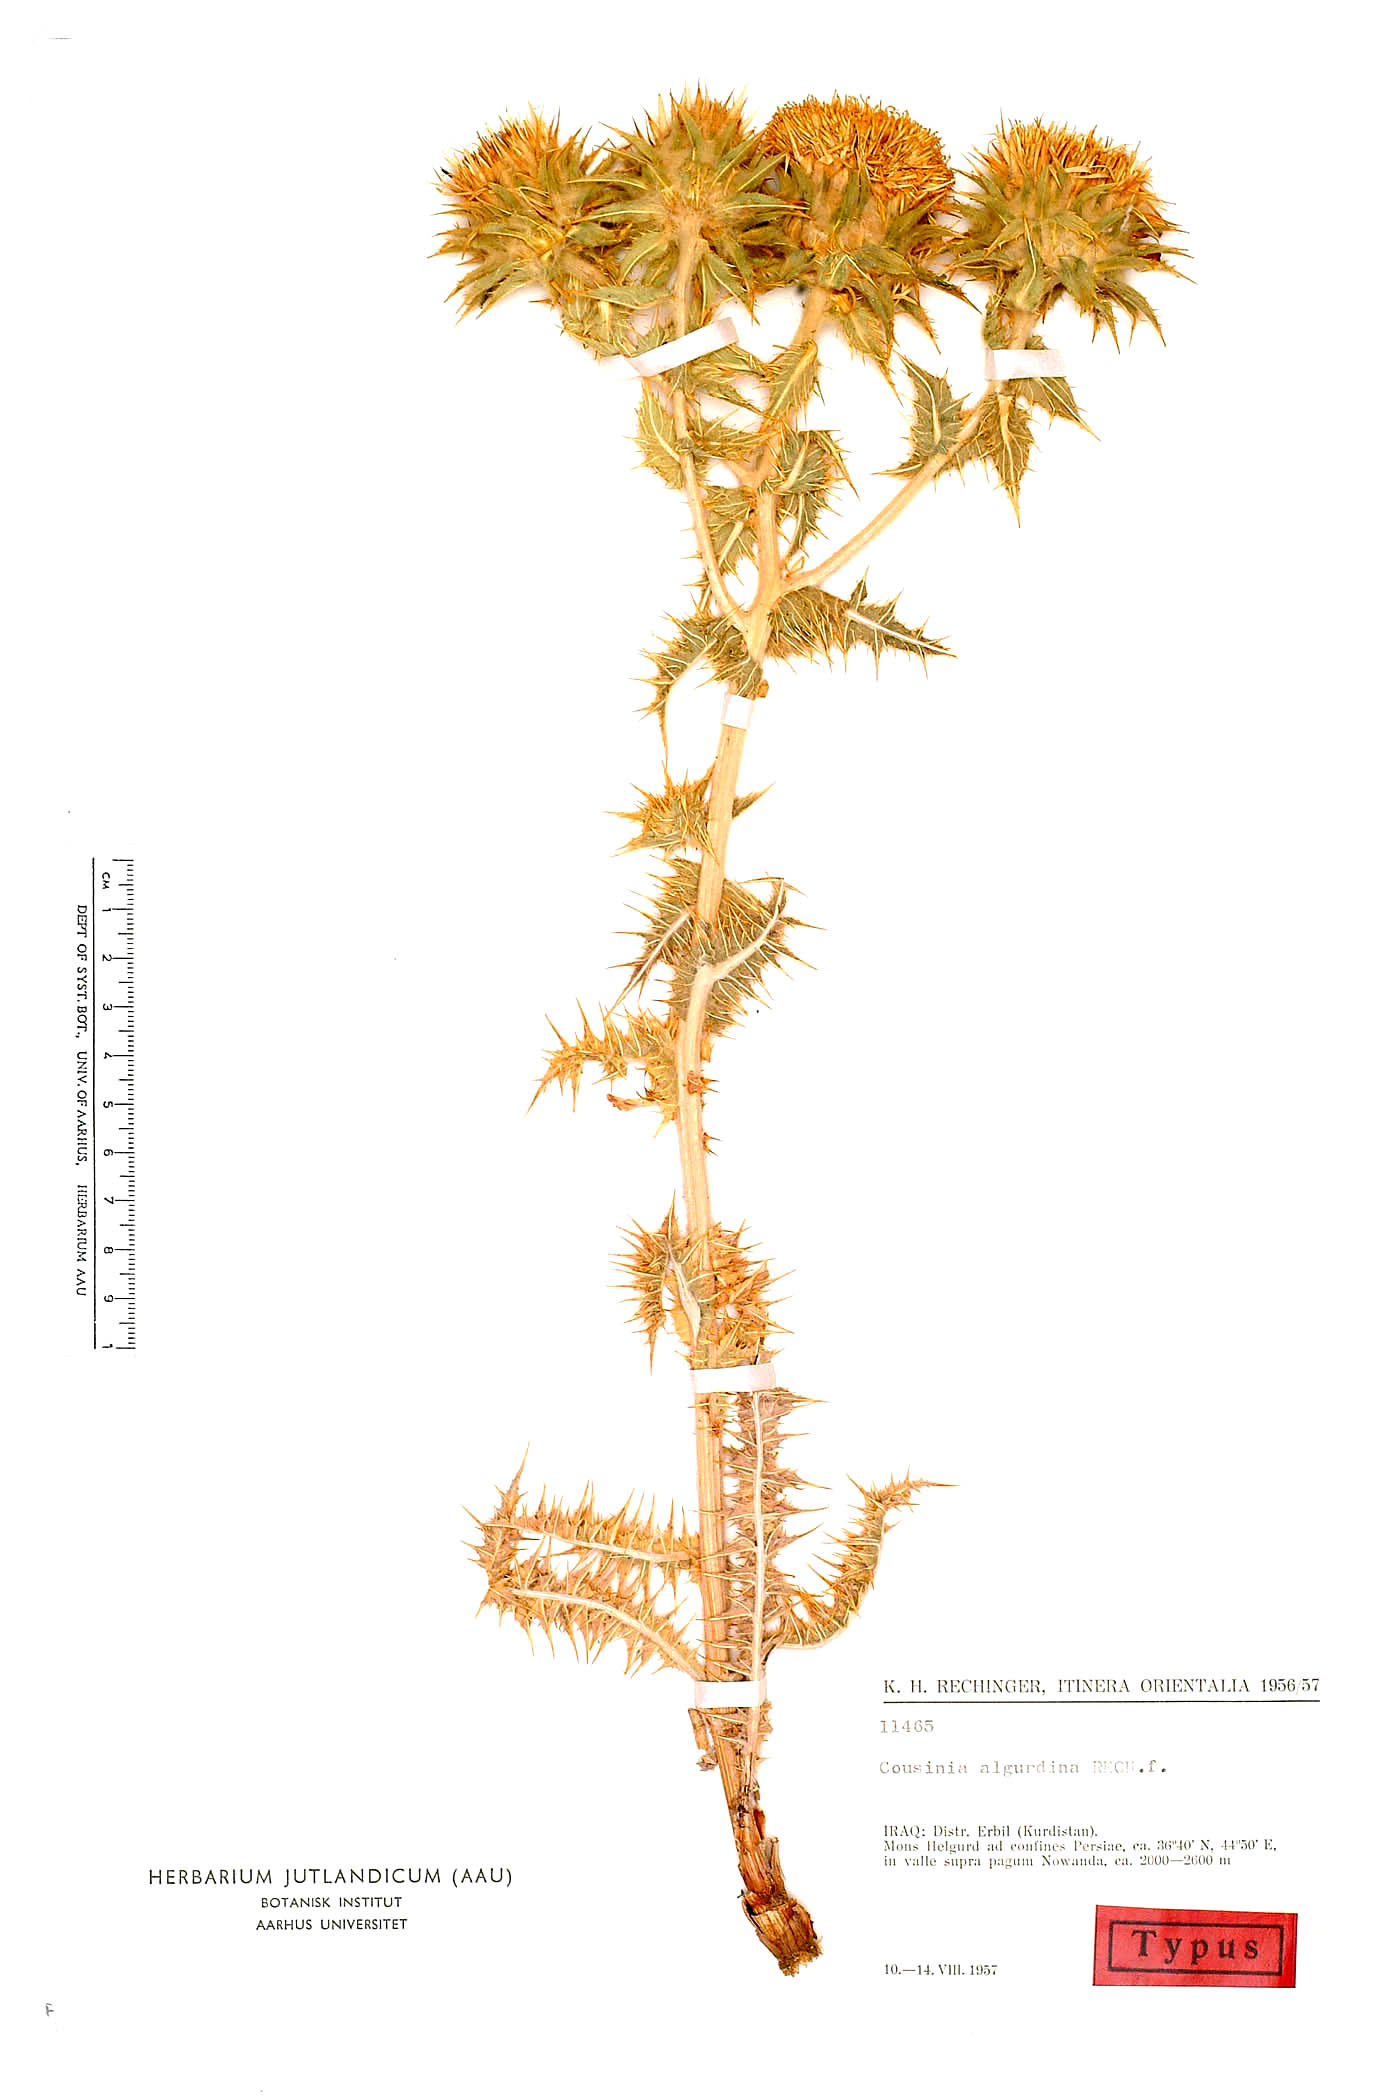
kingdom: Plantae
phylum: Tracheophyta
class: Magnoliopsida
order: Asterales
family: Asteraceae
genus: Cousinia
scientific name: Cousinia algurdina
